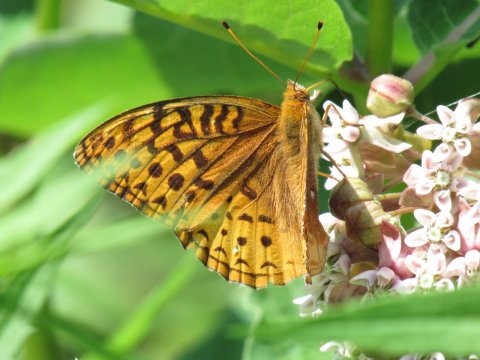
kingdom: Animalia
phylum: Arthropoda
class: Insecta
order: Lepidoptera
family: Nymphalidae
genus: Speyeria
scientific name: Speyeria cybele
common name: Great Spangled Fritillary
